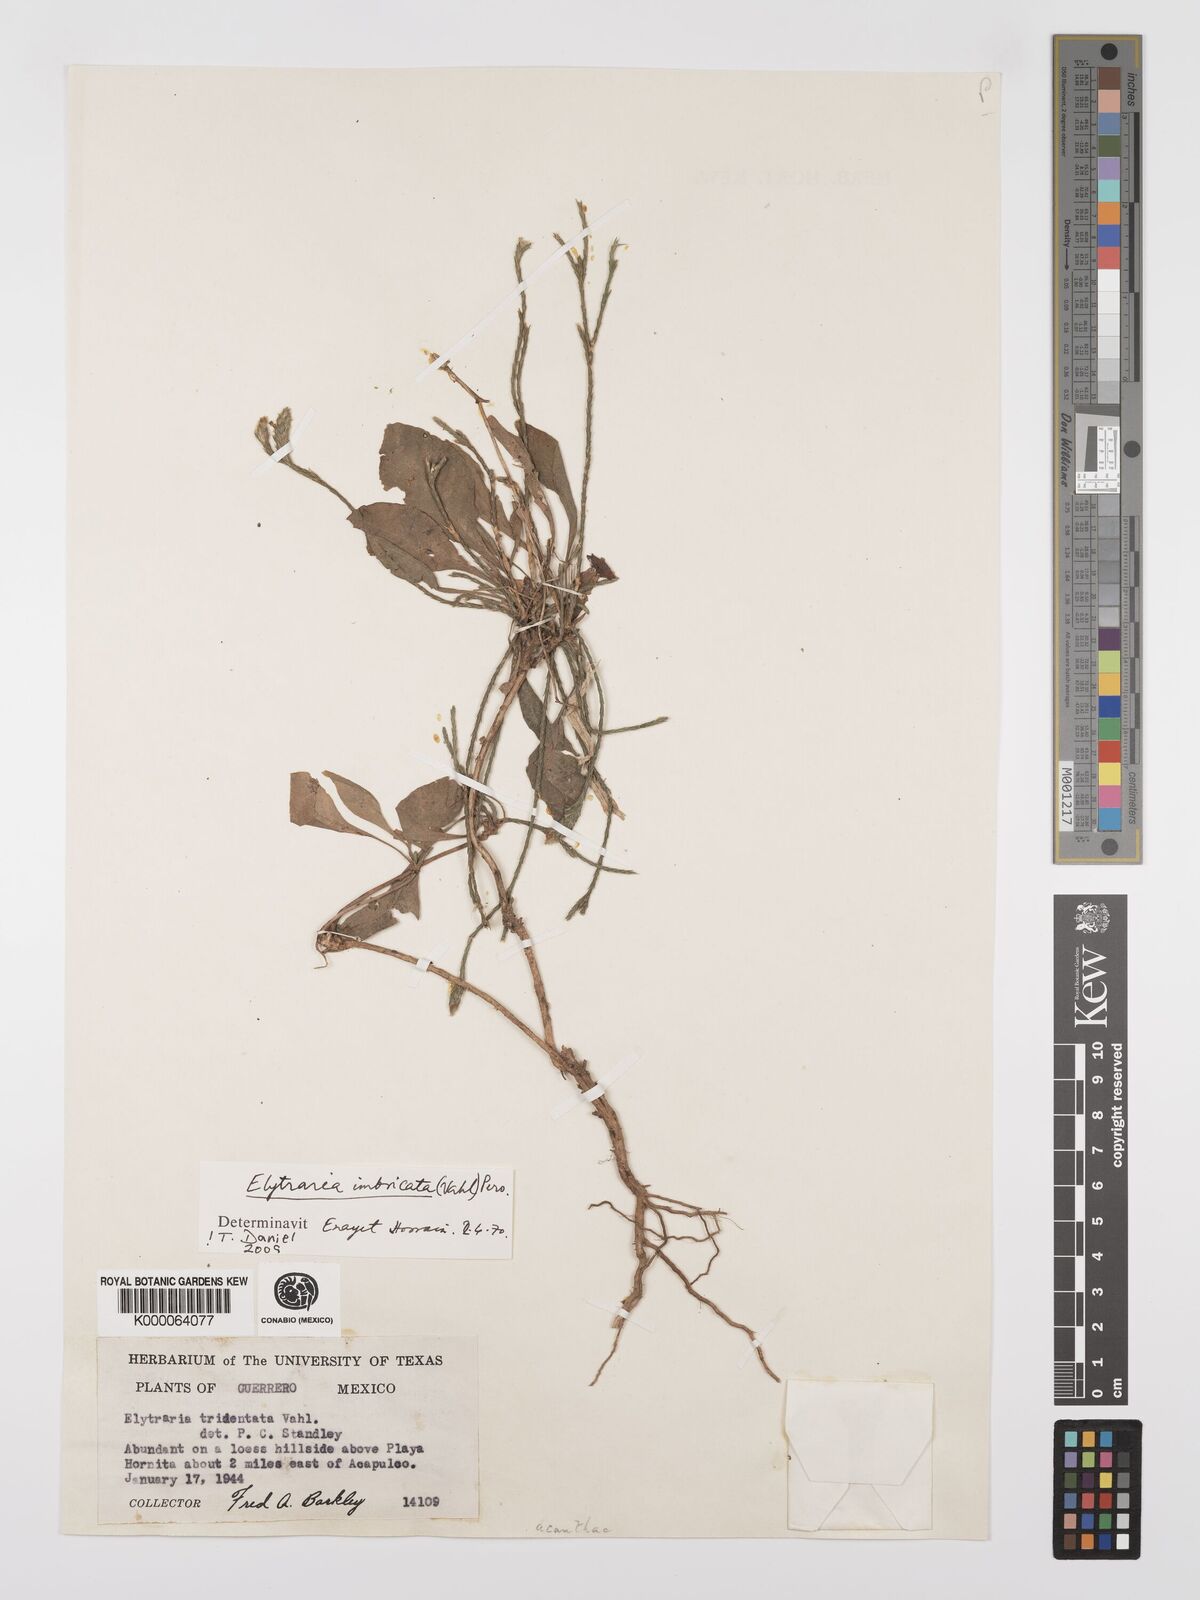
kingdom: Plantae
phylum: Tracheophyta
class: Magnoliopsida
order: Lamiales
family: Acanthaceae
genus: Elytraria
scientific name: Elytraria imbricata
